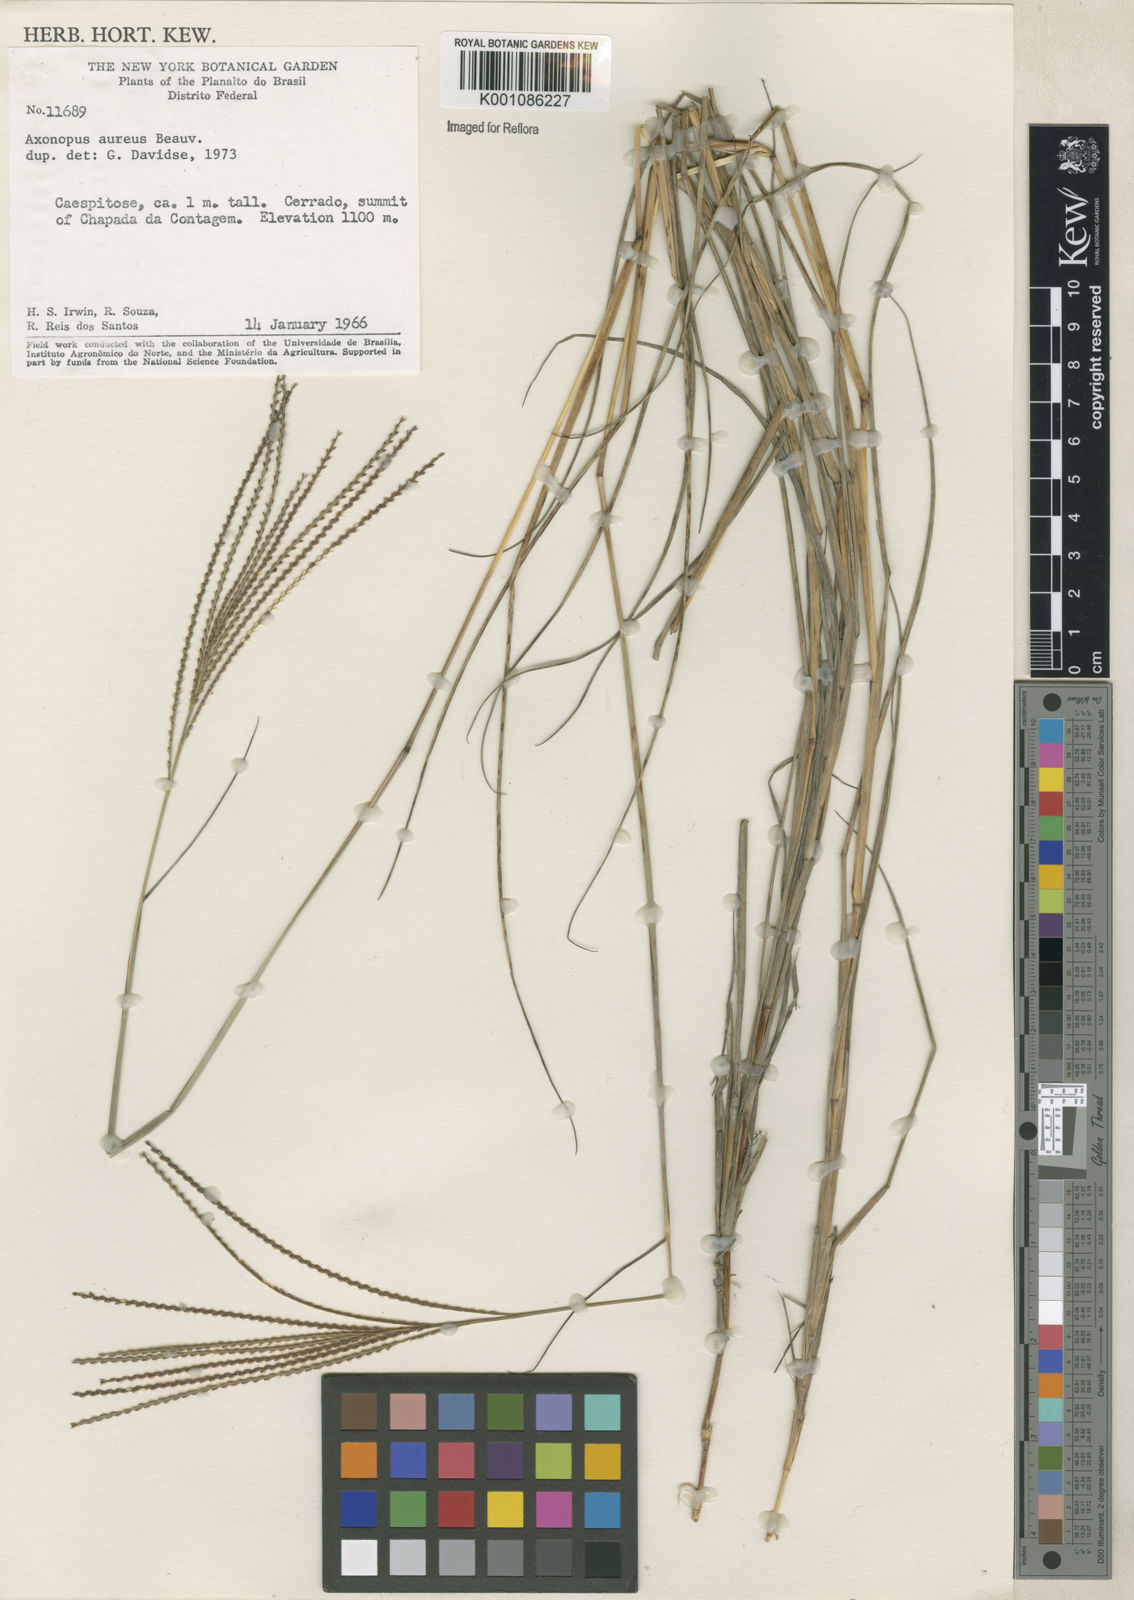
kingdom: Plantae
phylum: Tracheophyta
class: Liliopsida
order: Poales
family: Poaceae
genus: Axonopus
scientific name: Axonopus aureus
